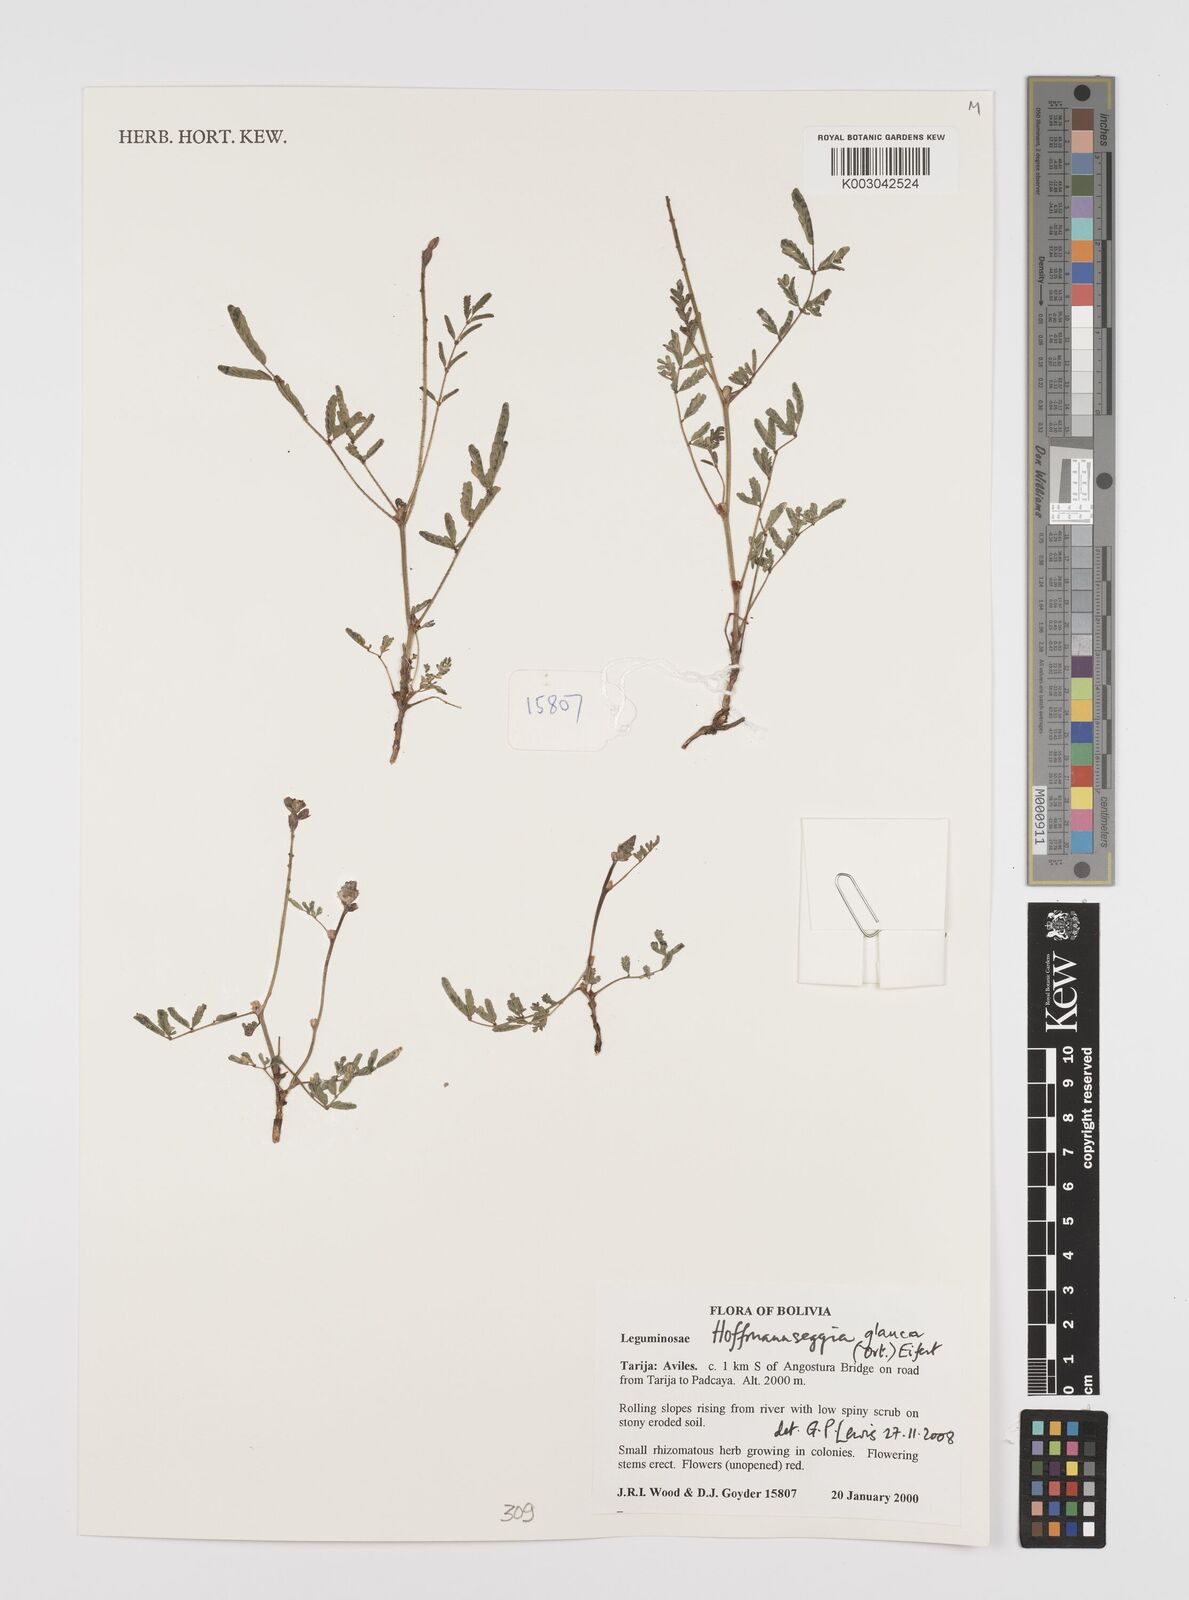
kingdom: Plantae
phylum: Tracheophyta
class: Magnoliopsida
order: Fabales
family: Fabaceae
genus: Hoffmannseggia
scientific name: Hoffmannseggia glauca
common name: Pignut
